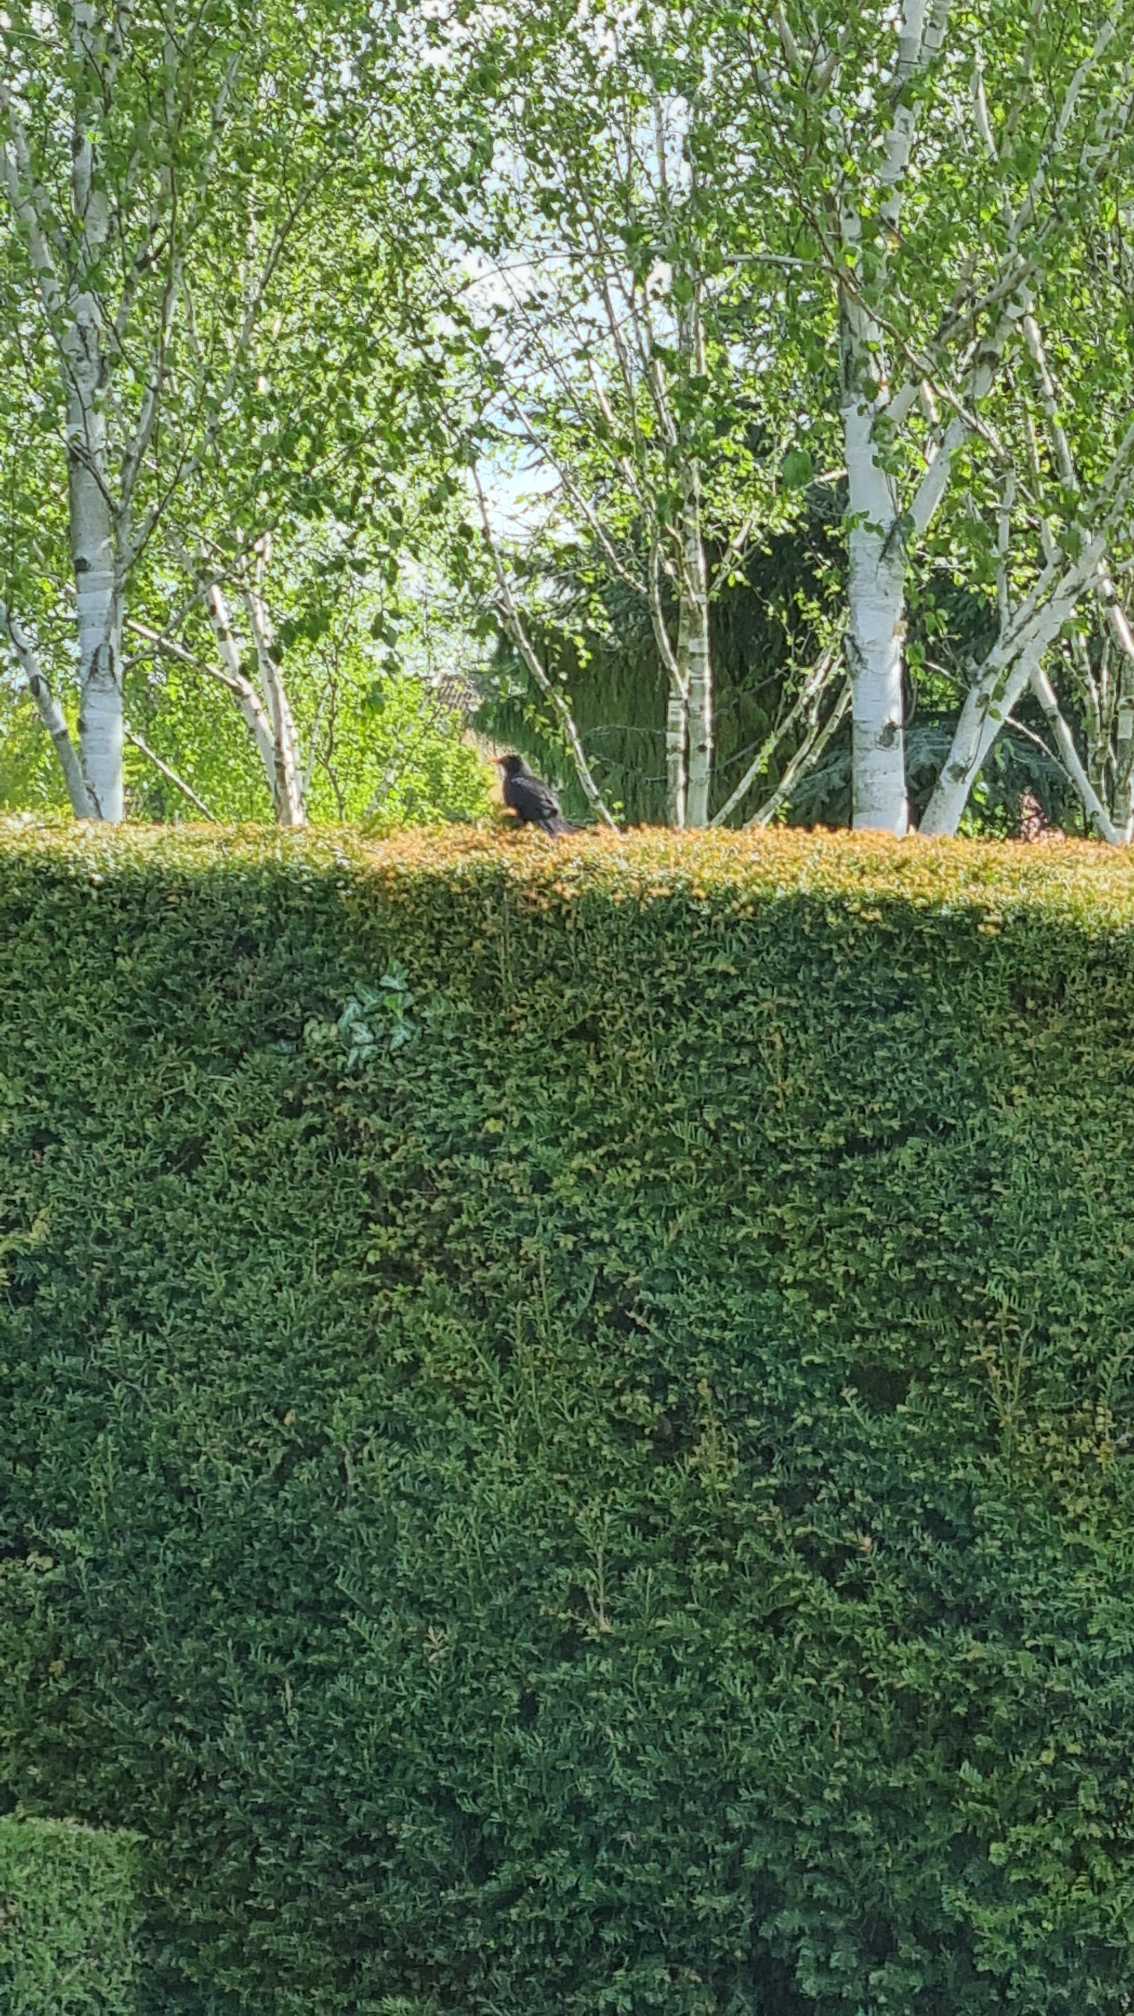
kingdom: Animalia
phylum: Chordata
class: Aves
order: Passeriformes
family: Turdidae
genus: Turdus
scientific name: Turdus merula
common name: Solsort
